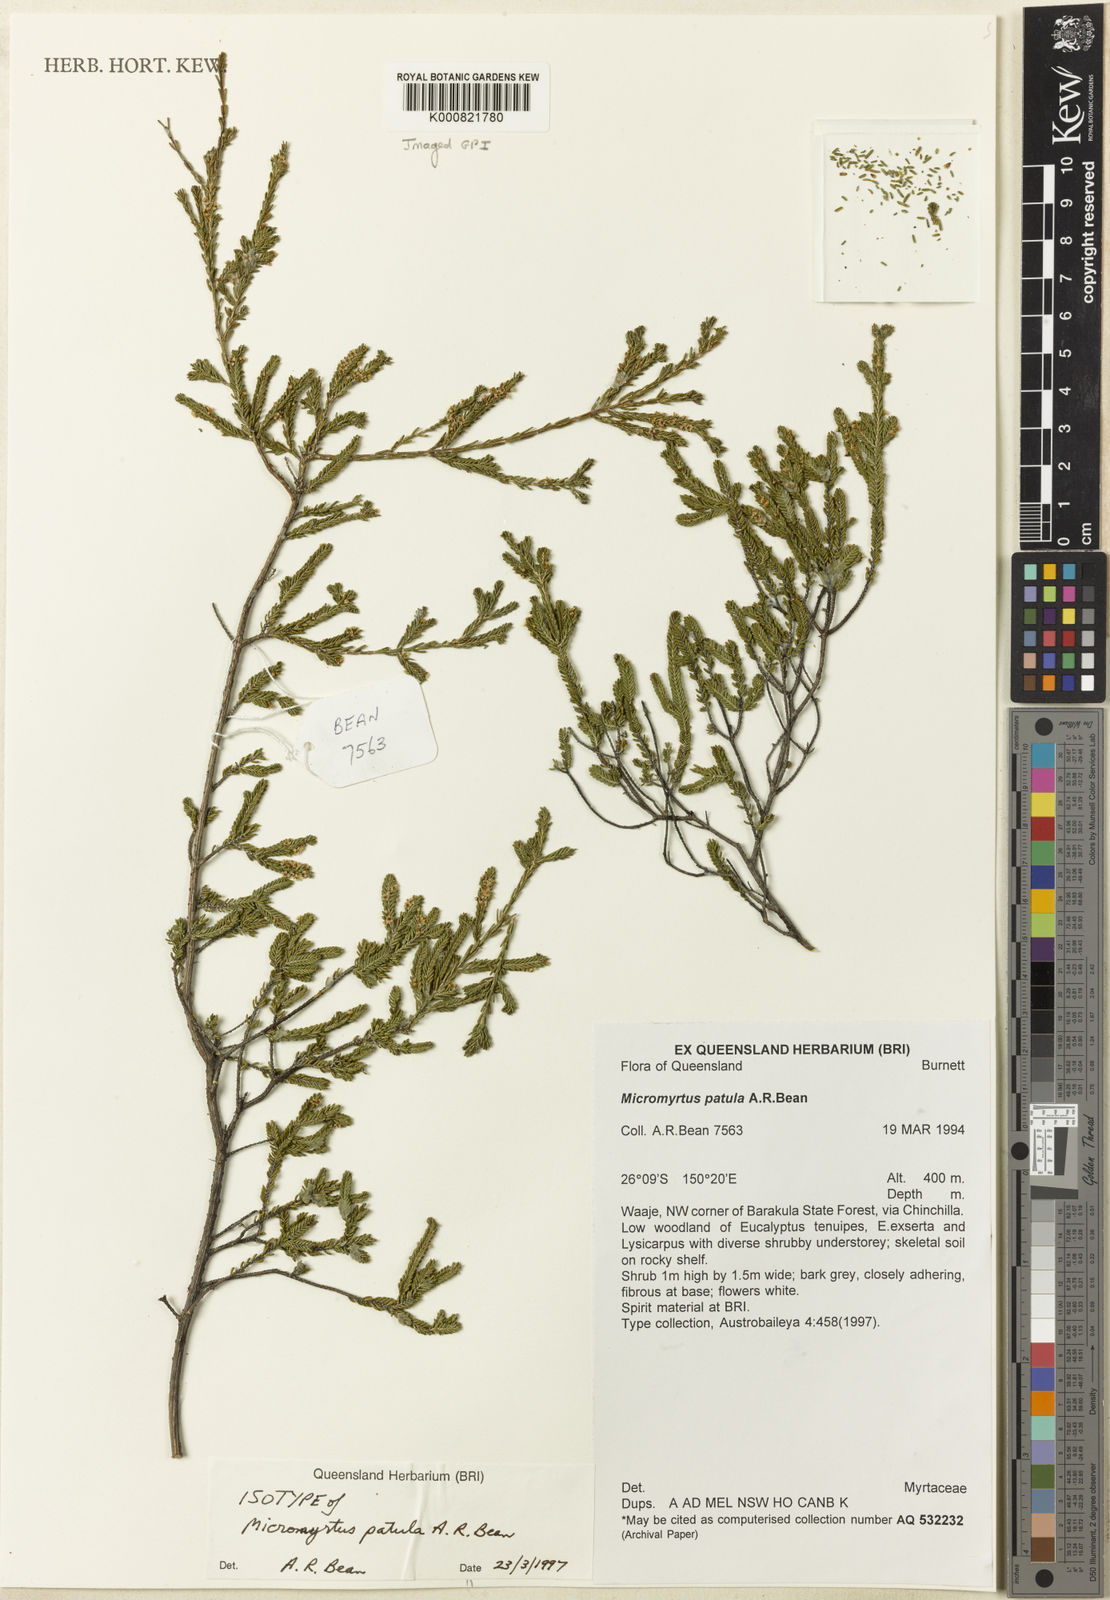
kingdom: Plantae
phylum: Tracheophyta
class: Magnoliopsida
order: Myrtales
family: Myrtaceae
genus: Micromyrtus
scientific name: Micromyrtus patula
